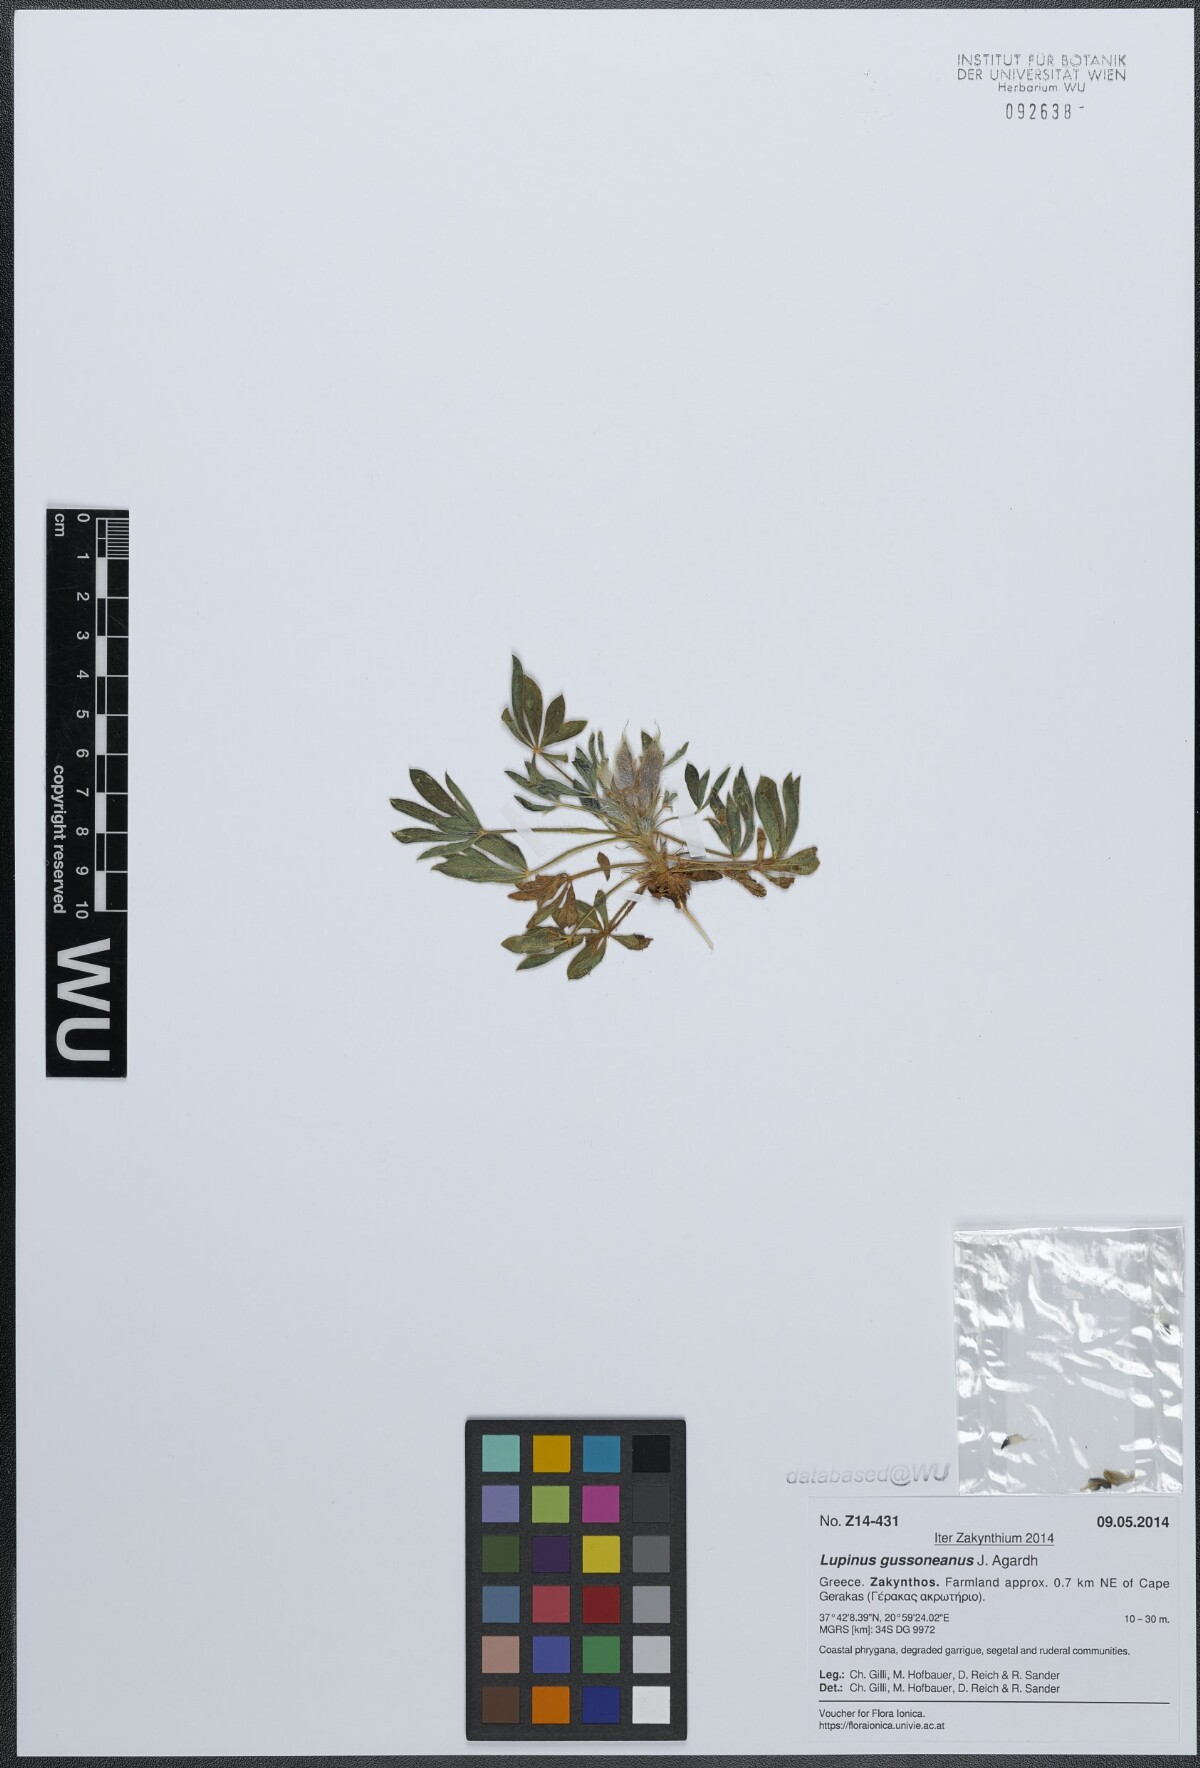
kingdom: Plantae
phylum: Tracheophyta
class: Magnoliopsida
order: Fabales
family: Fabaceae
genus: Lupinus
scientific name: Lupinus gussoneanus
